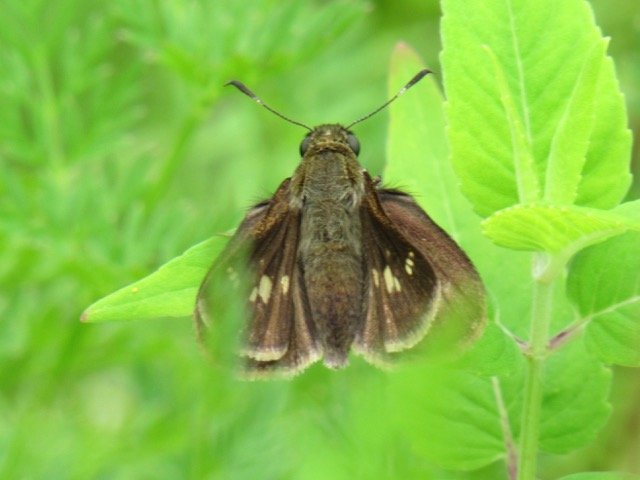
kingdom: Animalia
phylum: Arthropoda
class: Insecta
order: Lepidoptera
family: Hesperiidae
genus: Vernia
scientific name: Vernia verna
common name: Little Glassywing
